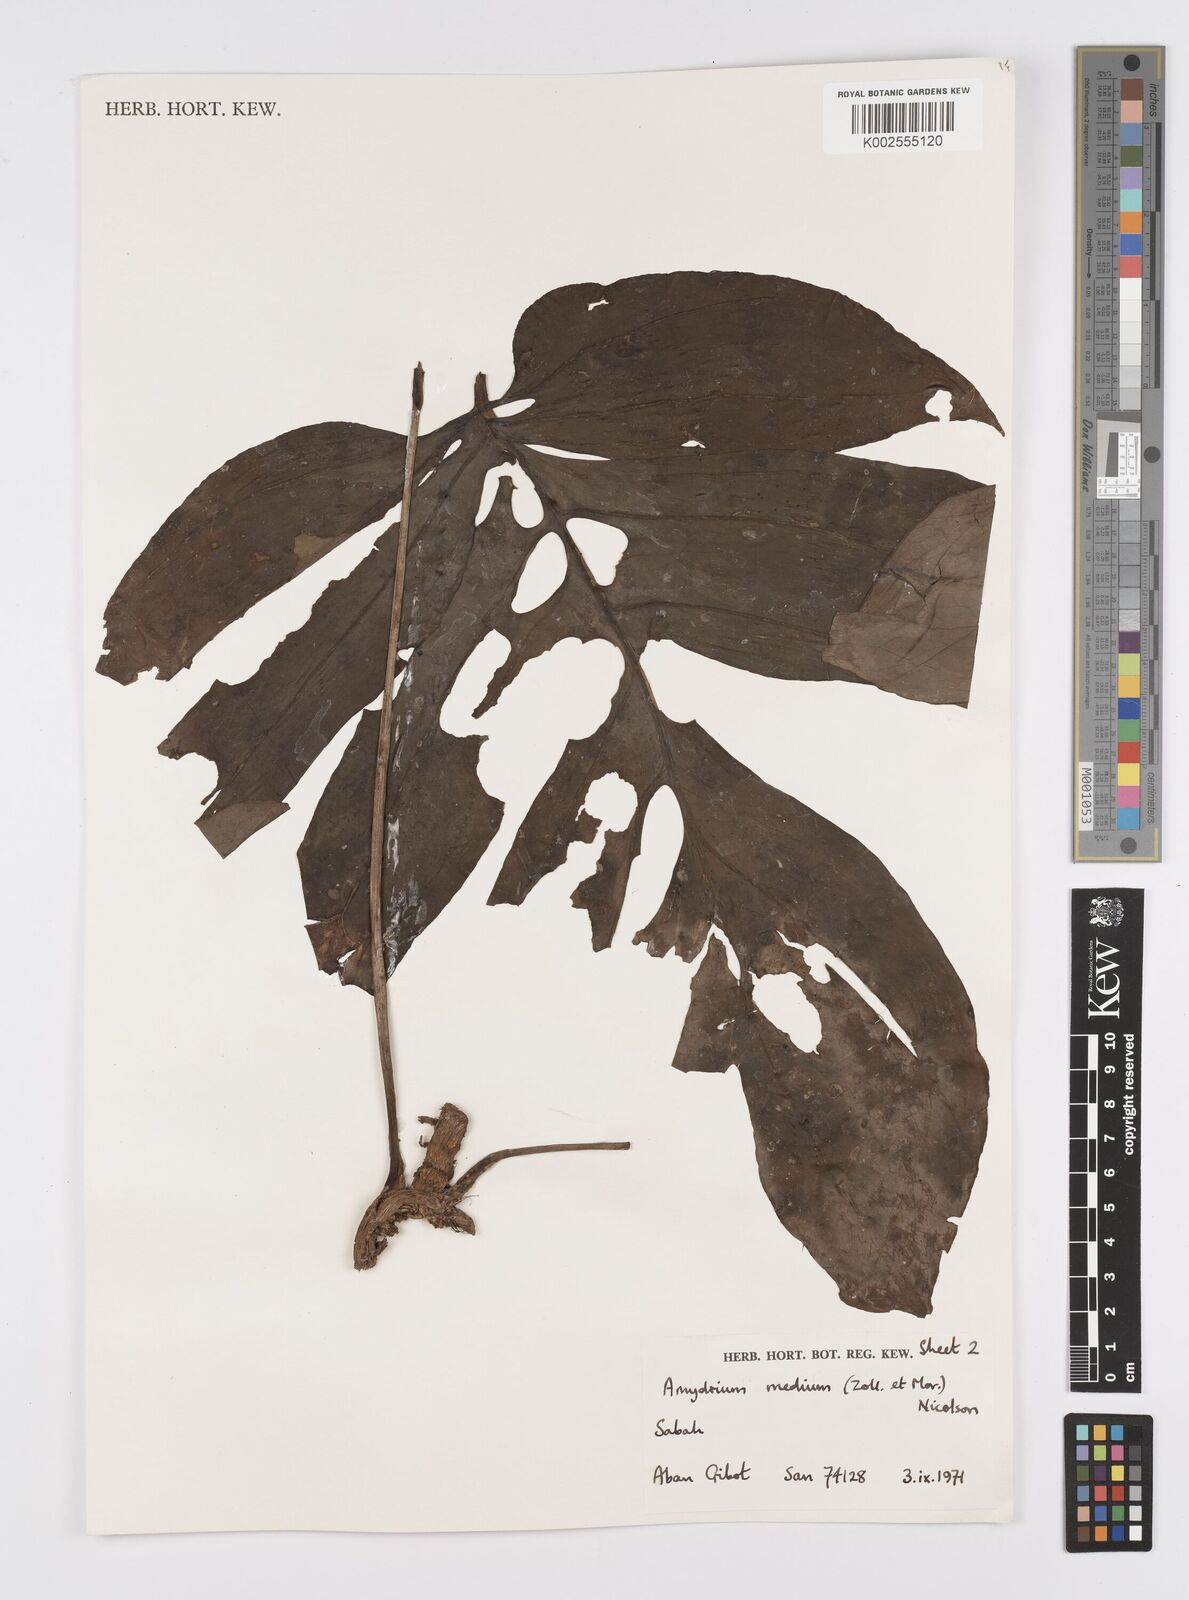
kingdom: Plantae
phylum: Tracheophyta
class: Liliopsida
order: Alismatales
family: Araceae
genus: Amydrium
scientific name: Amydrium medium
